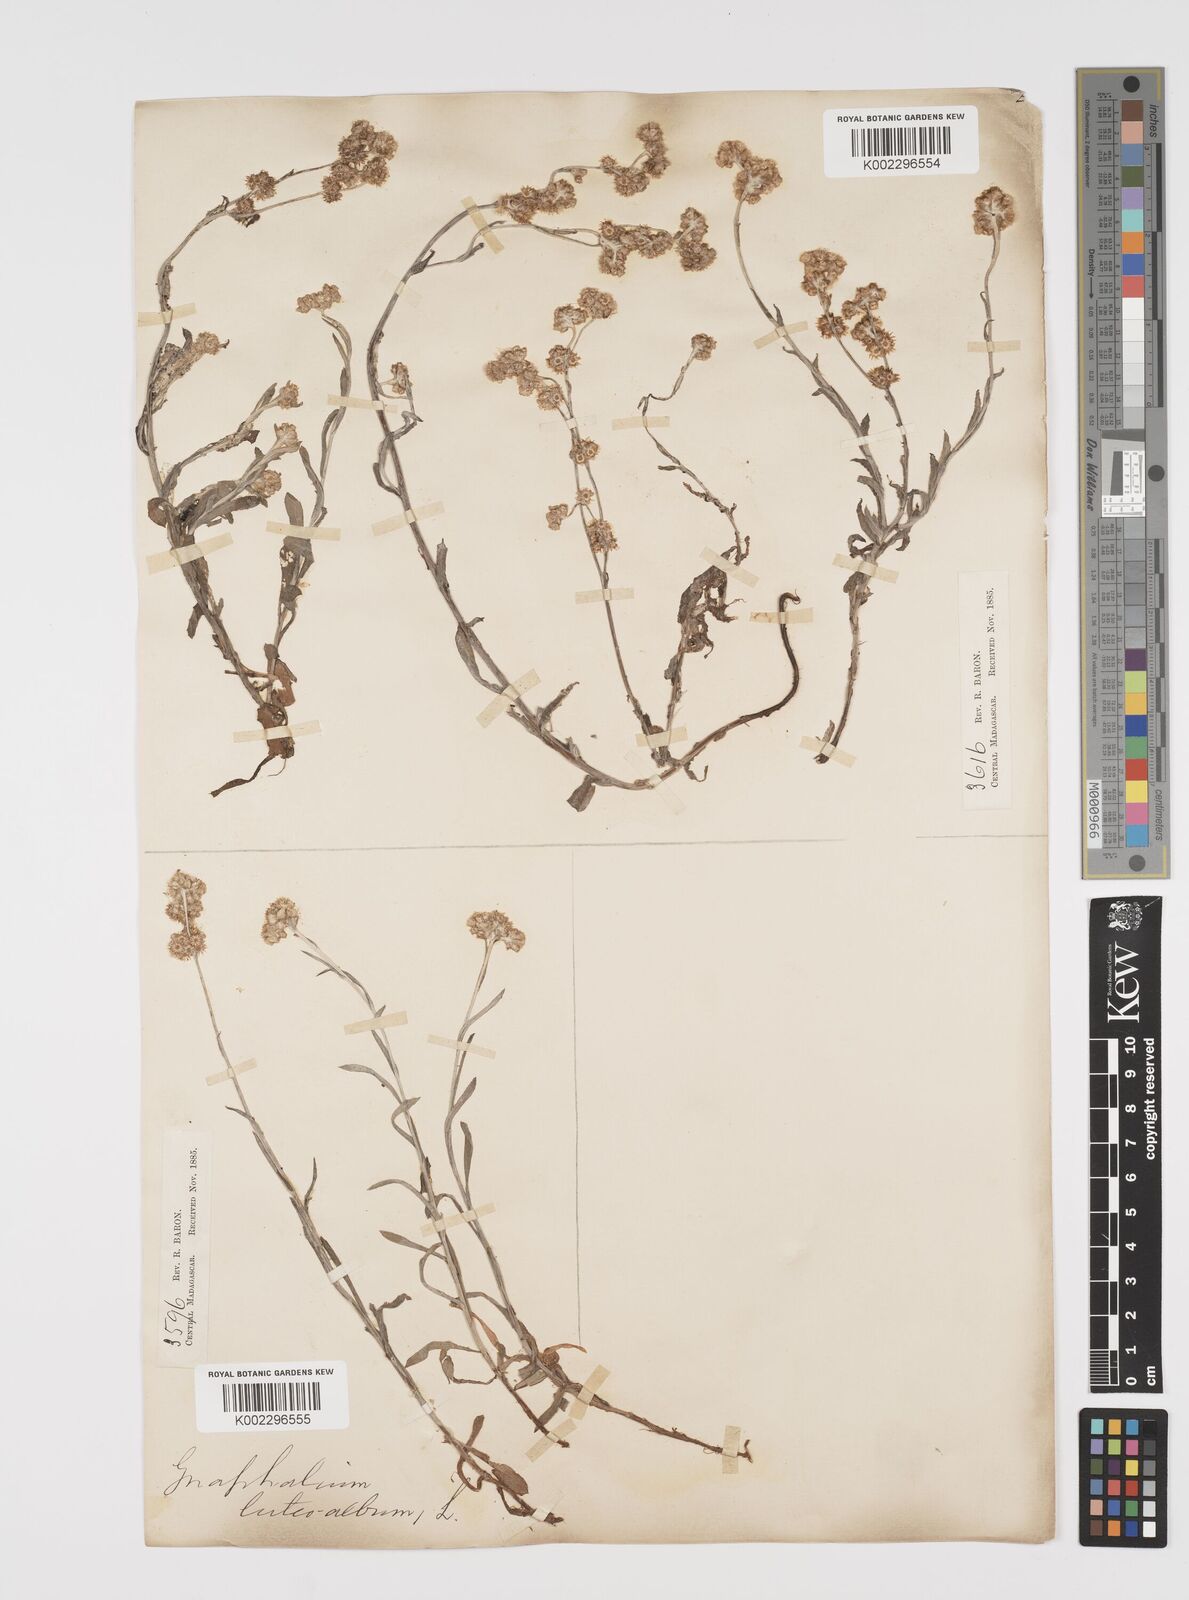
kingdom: Plantae
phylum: Tracheophyta
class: Magnoliopsida
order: Asterales
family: Asteraceae
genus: Helichrysum
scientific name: Helichrysum luteoalbum
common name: Daisy
